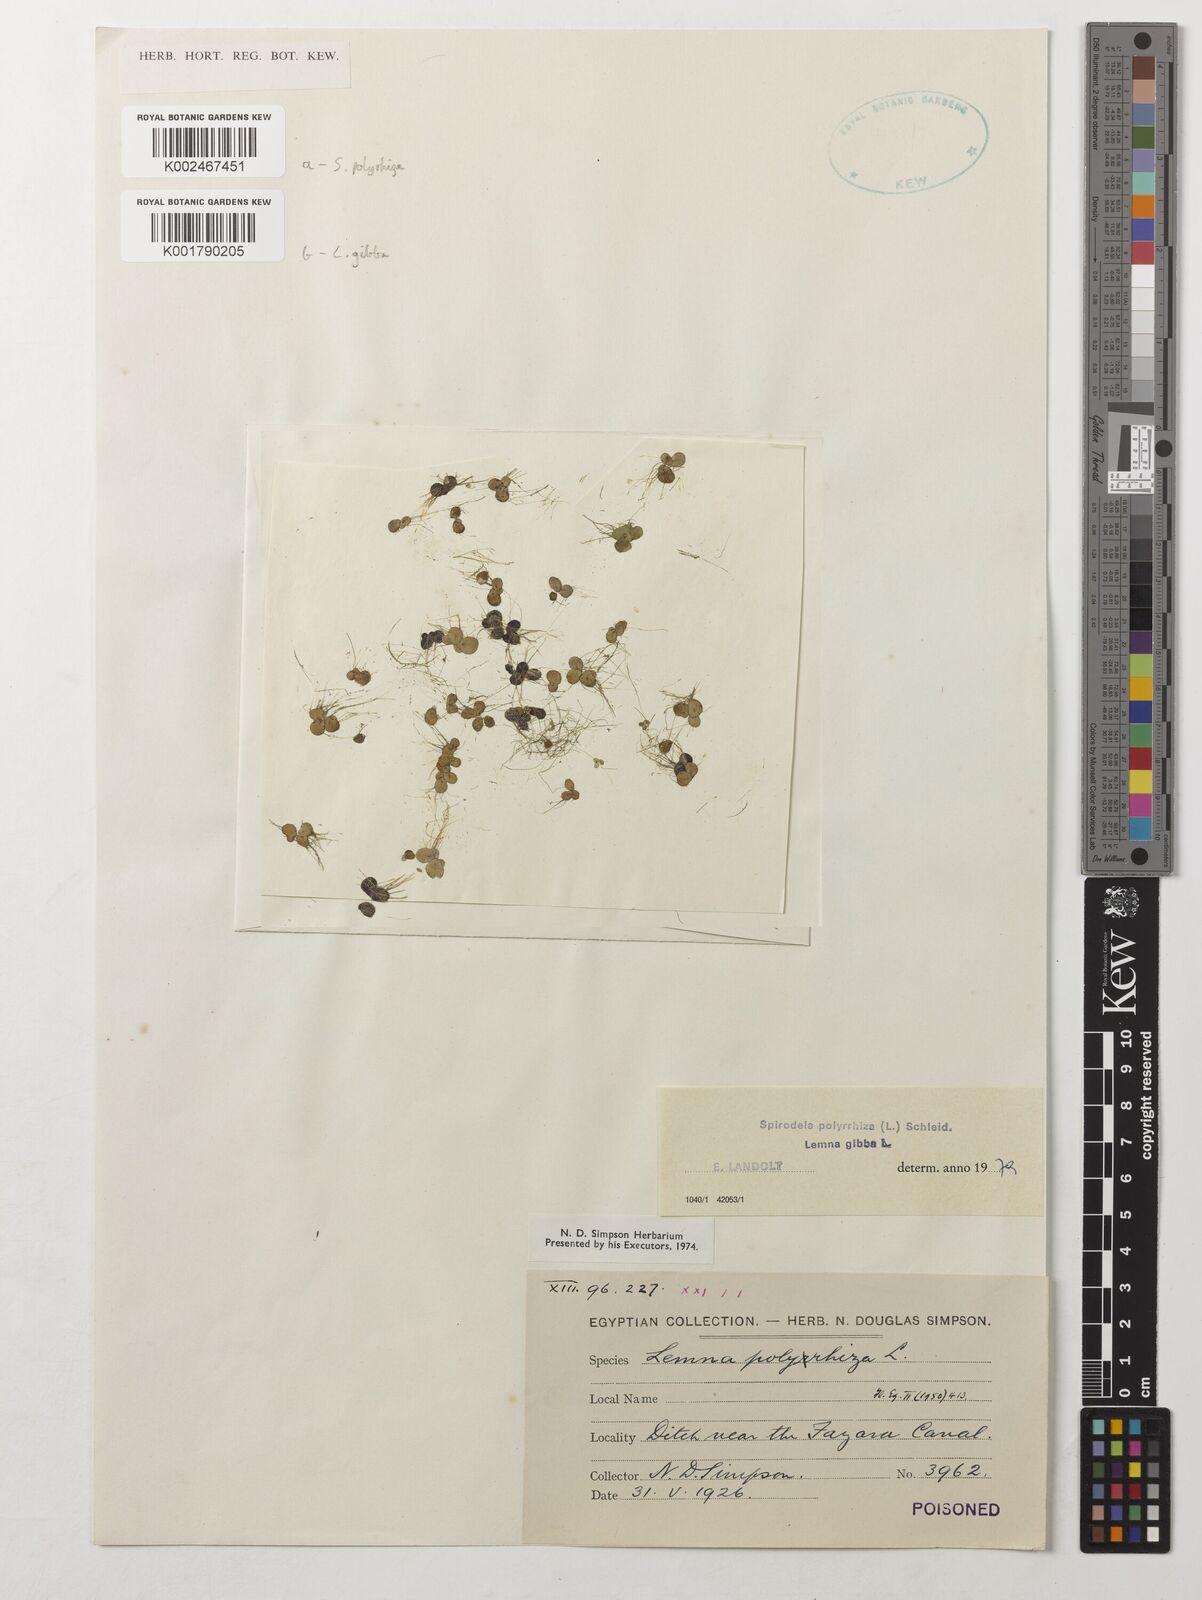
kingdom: Plantae
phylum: Tracheophyta
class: Liliopsida
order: Alismatales
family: Araceae
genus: Lemna
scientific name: Lemna gibba
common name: Fat duckweed
